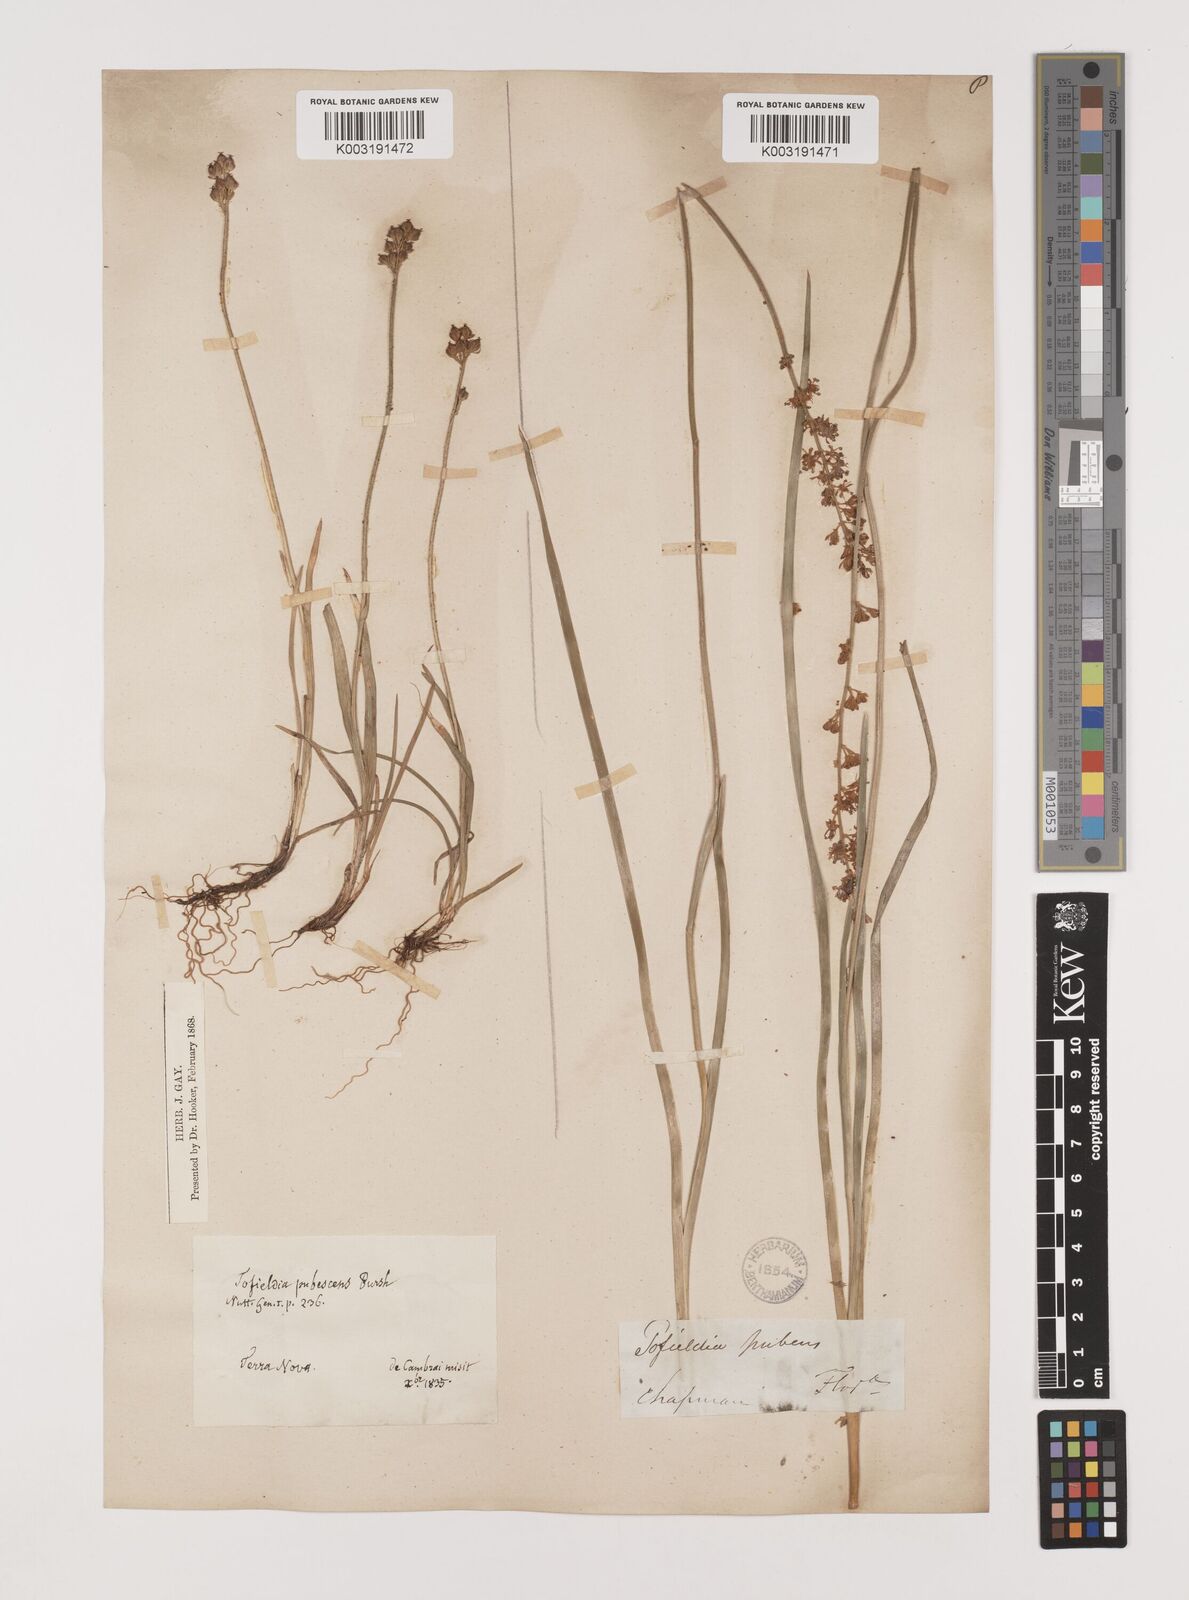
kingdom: Plantae
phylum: Tracheophyta
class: Liliopsida
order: Alismatales
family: Tofieldiaceae
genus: Triantha
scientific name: Triantha racemosa
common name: Coastal false asphodel
